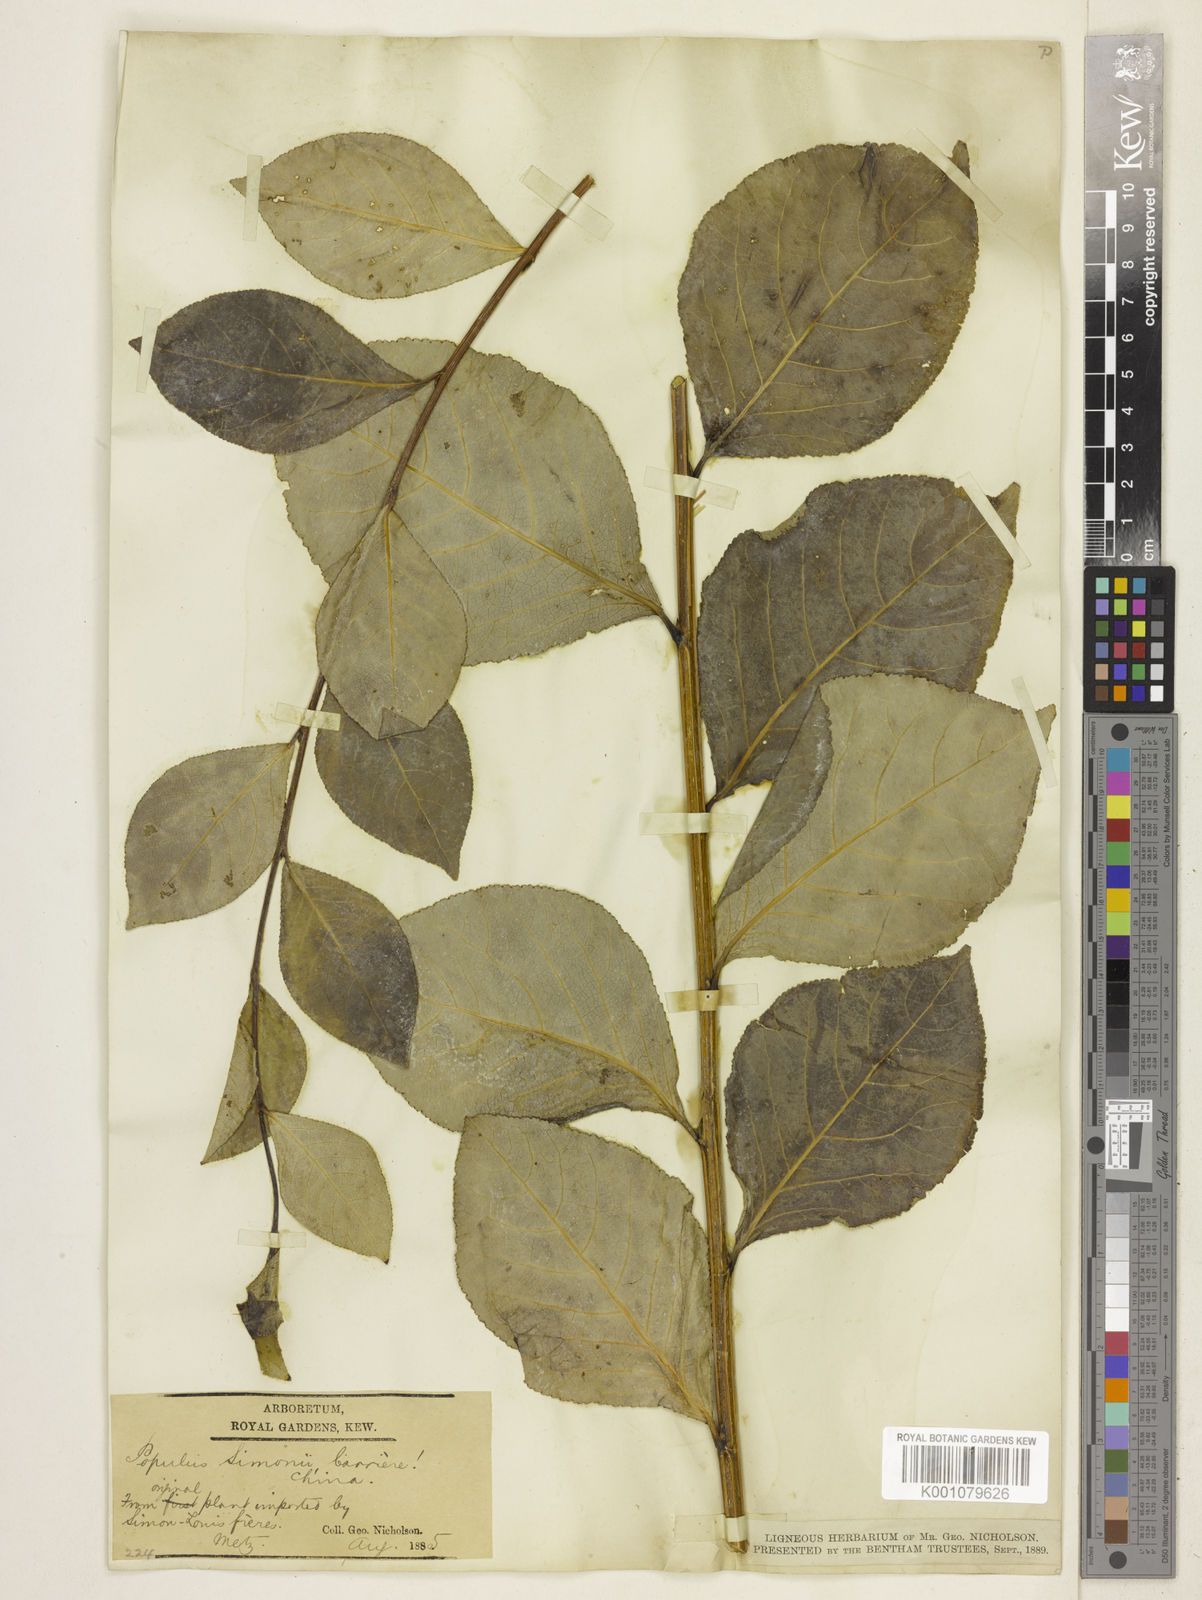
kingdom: Plantae
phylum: Tracheophyta
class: Magnoliopsida
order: Malpighiales
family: Salicaceae
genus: Populus
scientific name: Populus
